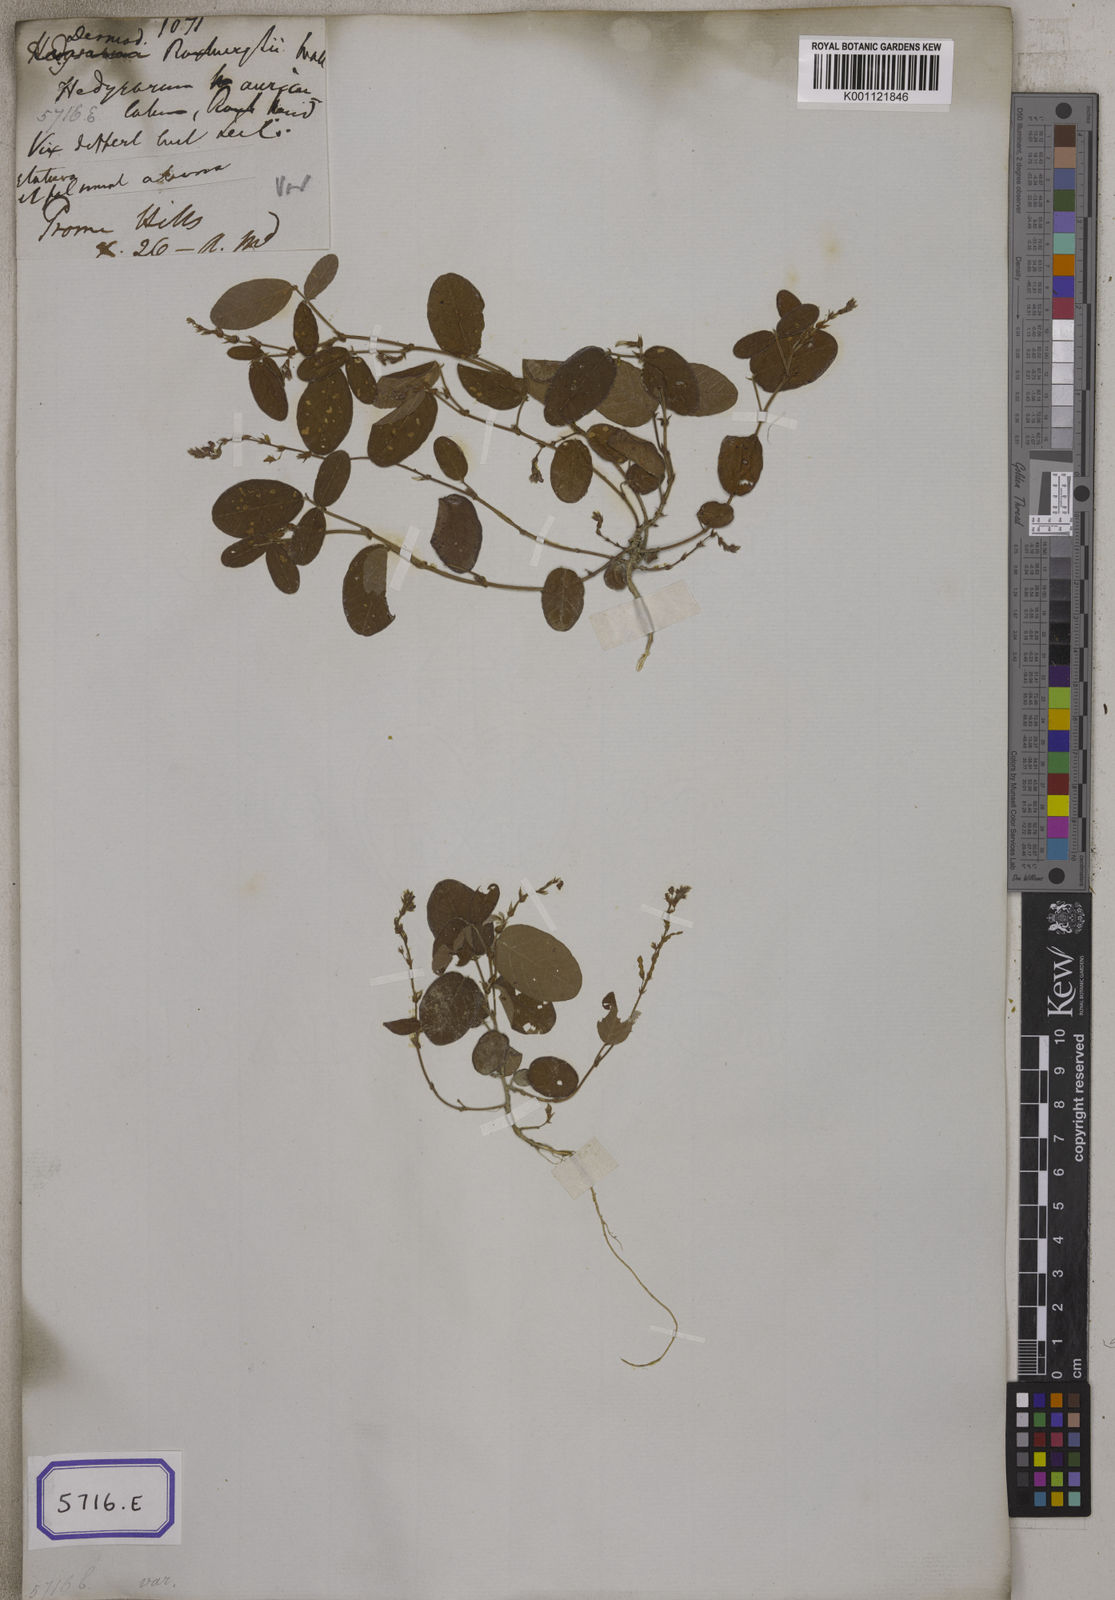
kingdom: Plantae
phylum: Tracheophyta
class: Magnoliopsida
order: Fabales
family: Fabaceae
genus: Polhillides
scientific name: Polhillides velutina
